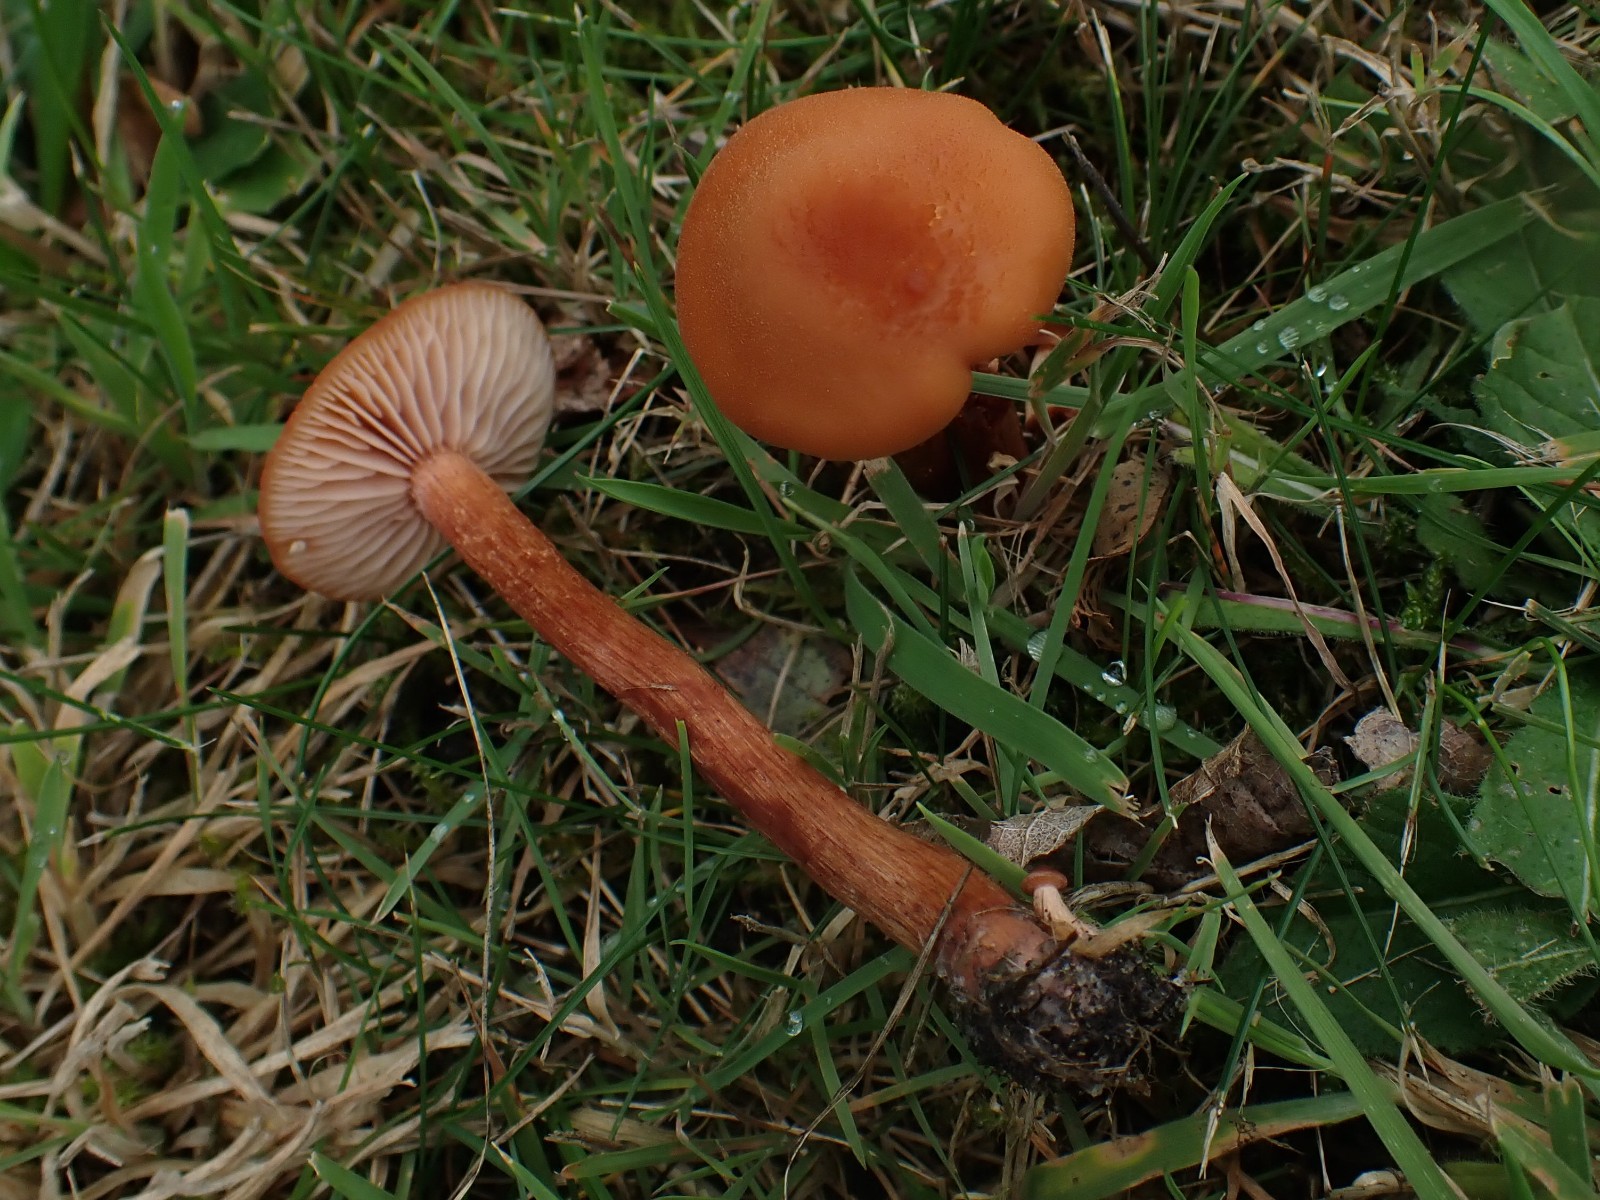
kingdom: Fungi
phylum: Basidiomycota
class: Agaricomycetes
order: Agaricales
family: Hydnangiaceae
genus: Laccaria
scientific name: Laccaria proxima
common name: stor ametysthat
